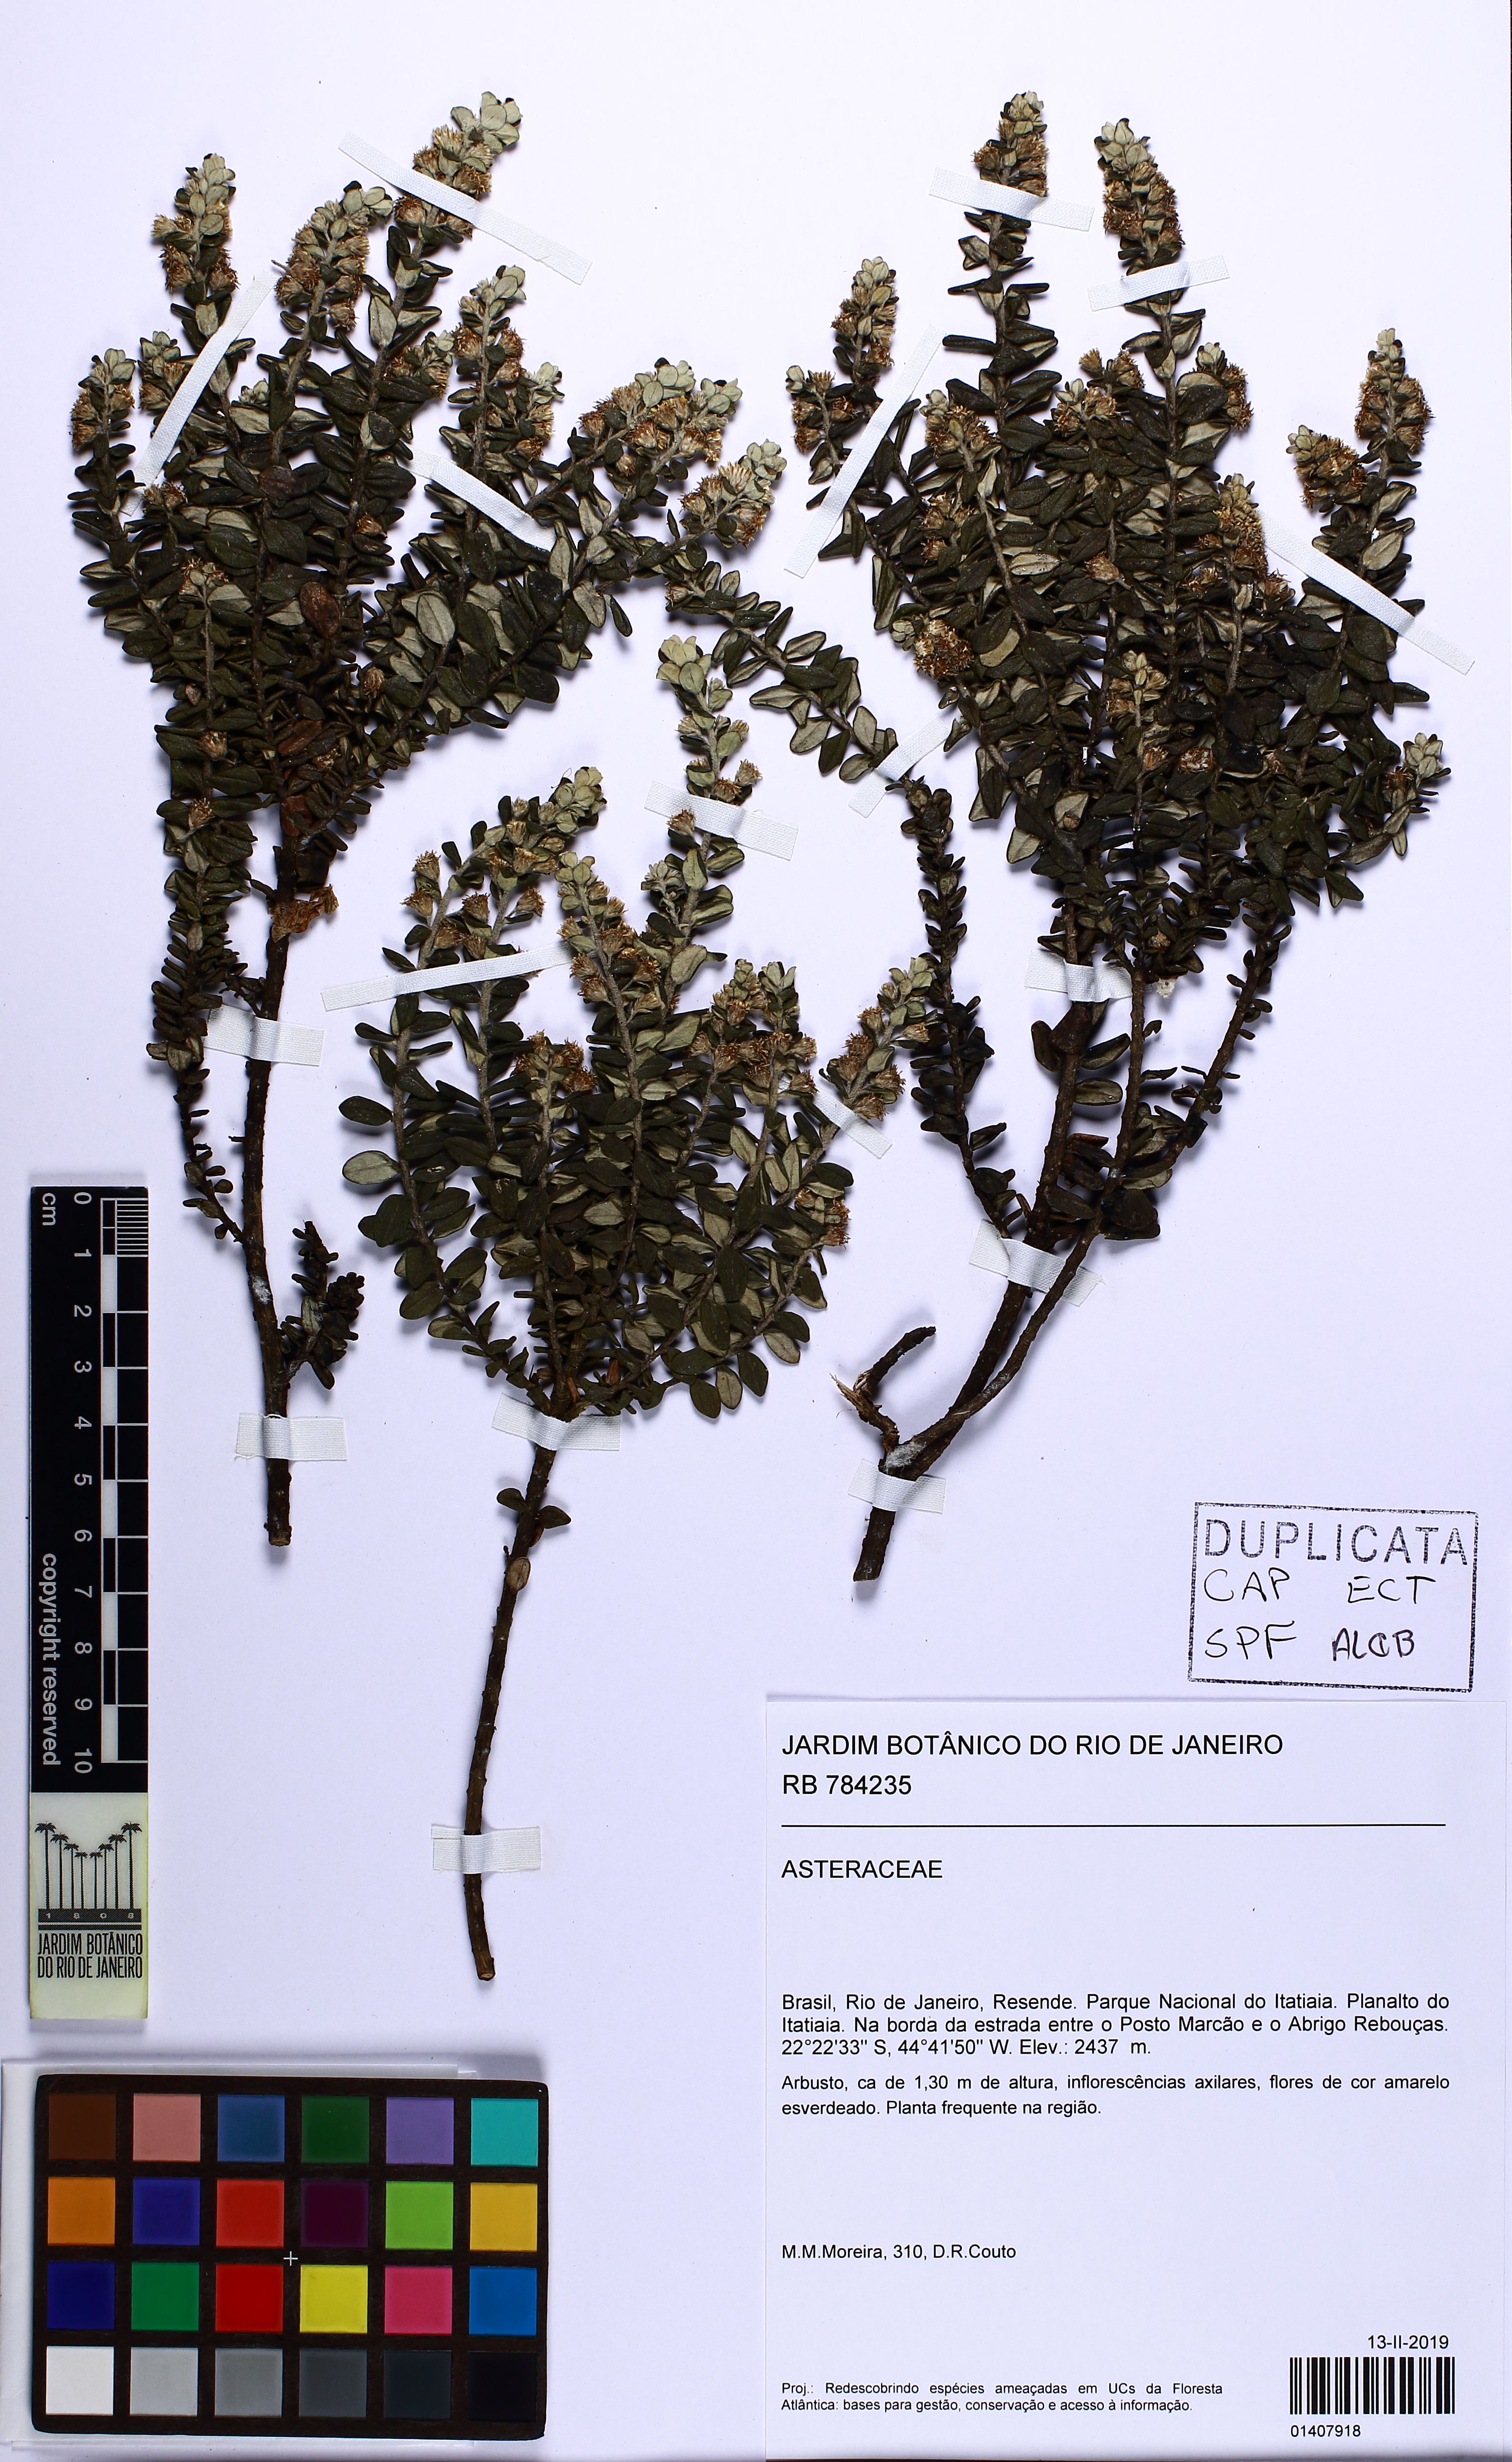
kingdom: Plantae
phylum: Tracheophyta
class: Magnoliopsida
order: Asterales
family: Asteraceae
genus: Baccharis
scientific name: Baccharis uncinella
